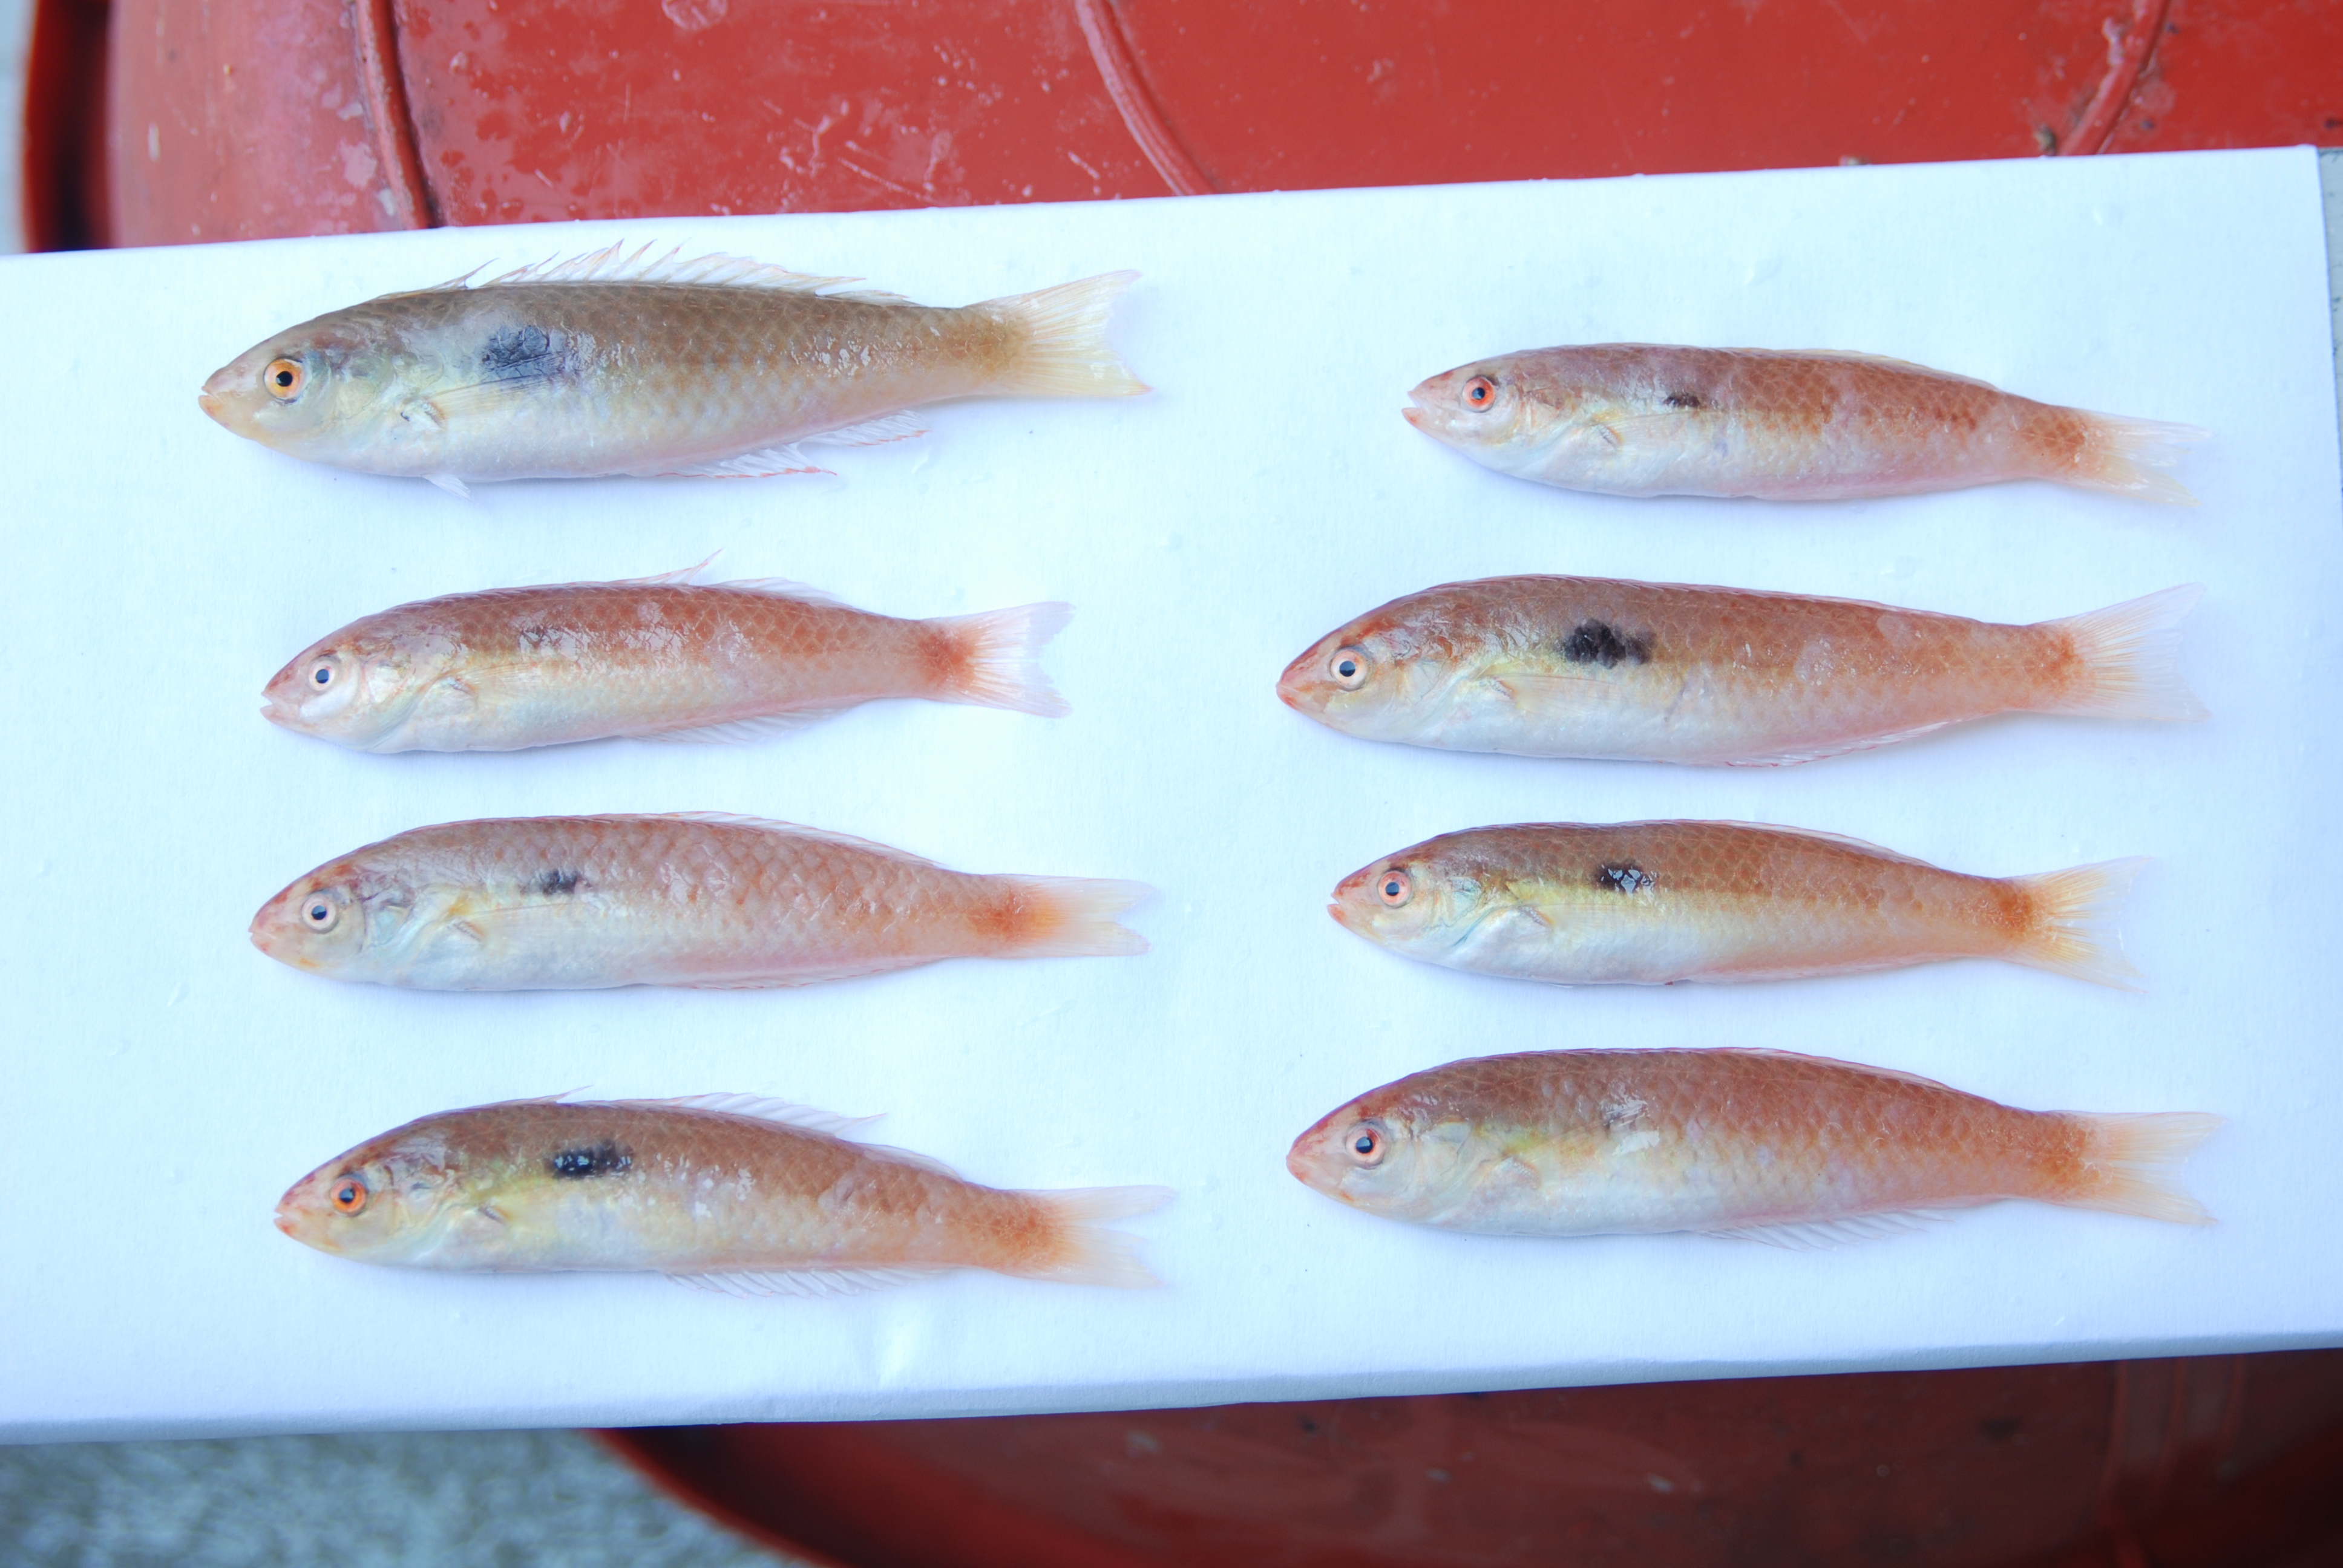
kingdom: Animalia
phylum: Chordata
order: Perciformes
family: Labridae
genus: Minilabrus
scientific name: Minilabrus
